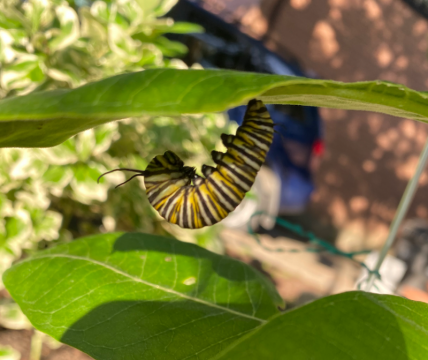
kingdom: Animalia
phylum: Arthropoda
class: Insecta
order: Lepidoptera
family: Nymphalidae
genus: Danaus
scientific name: Danaus plexippus
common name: Monarch
